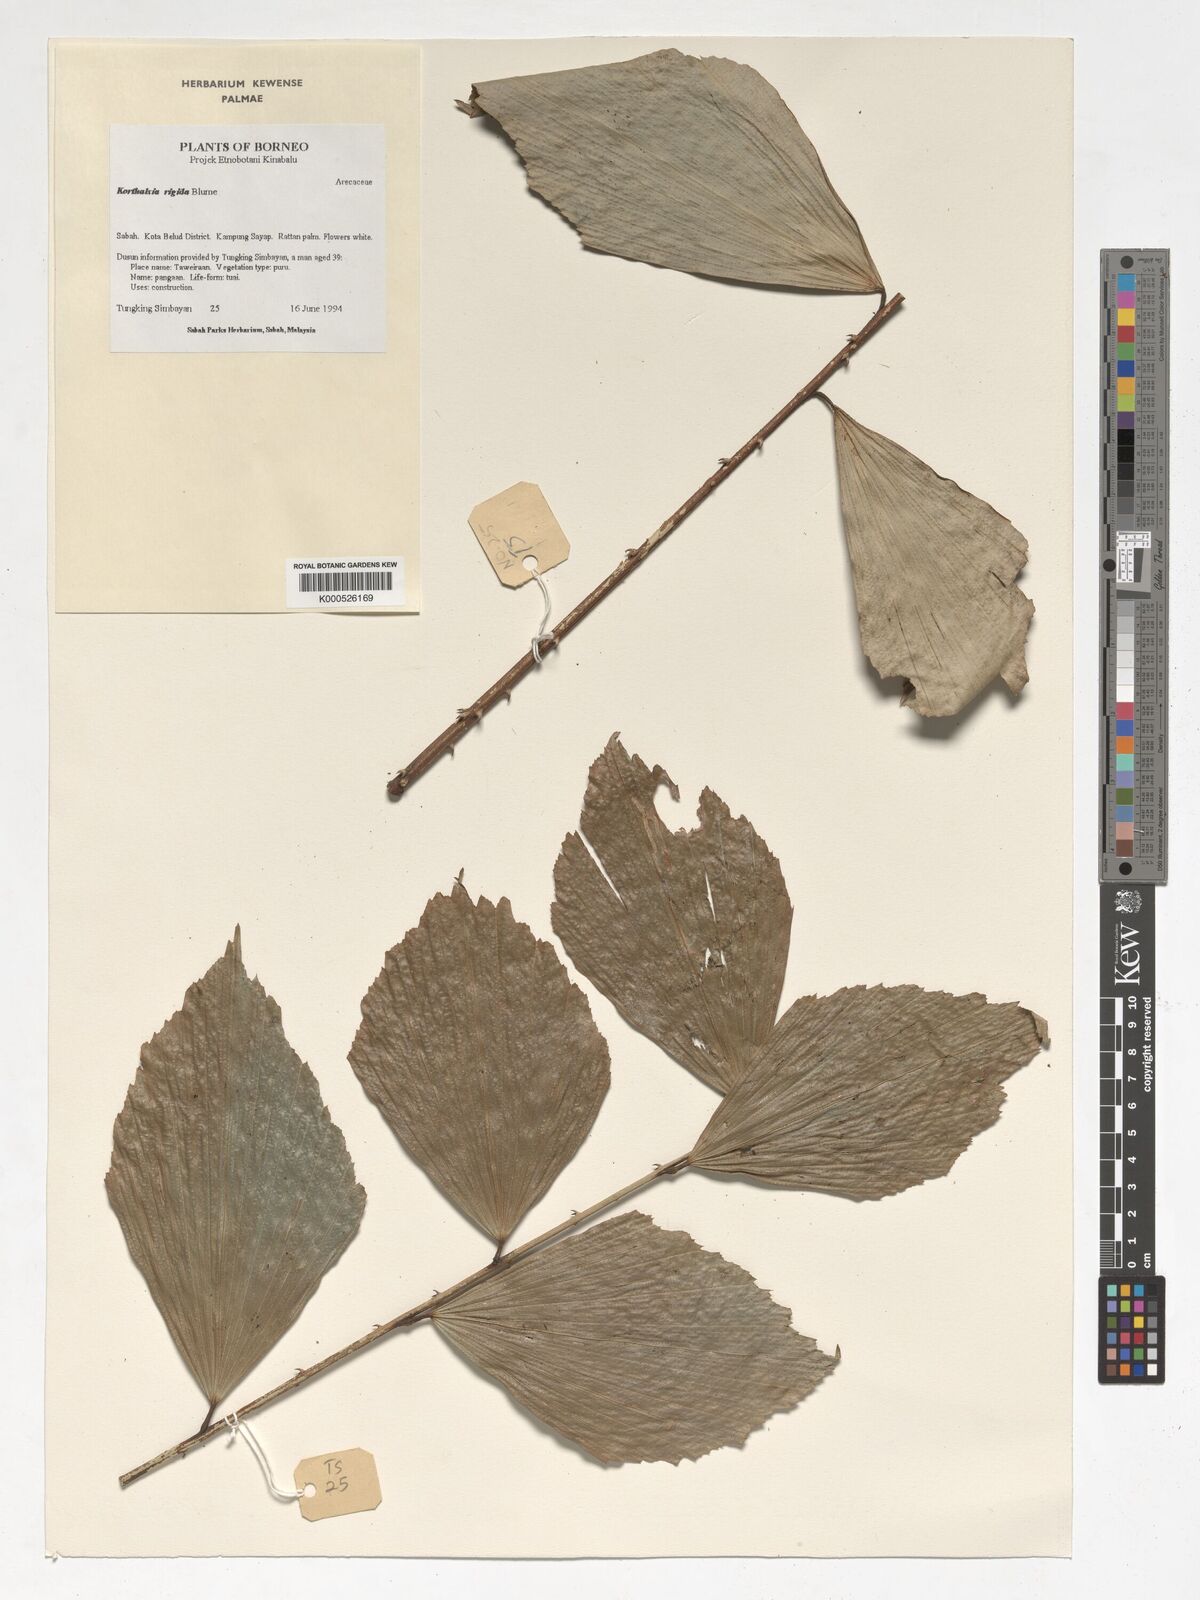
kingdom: Plantae
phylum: Tracheophyta
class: Liliopsida
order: Arecales
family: Arecaceae
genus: Korthalsia
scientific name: Korthalsia rigida
